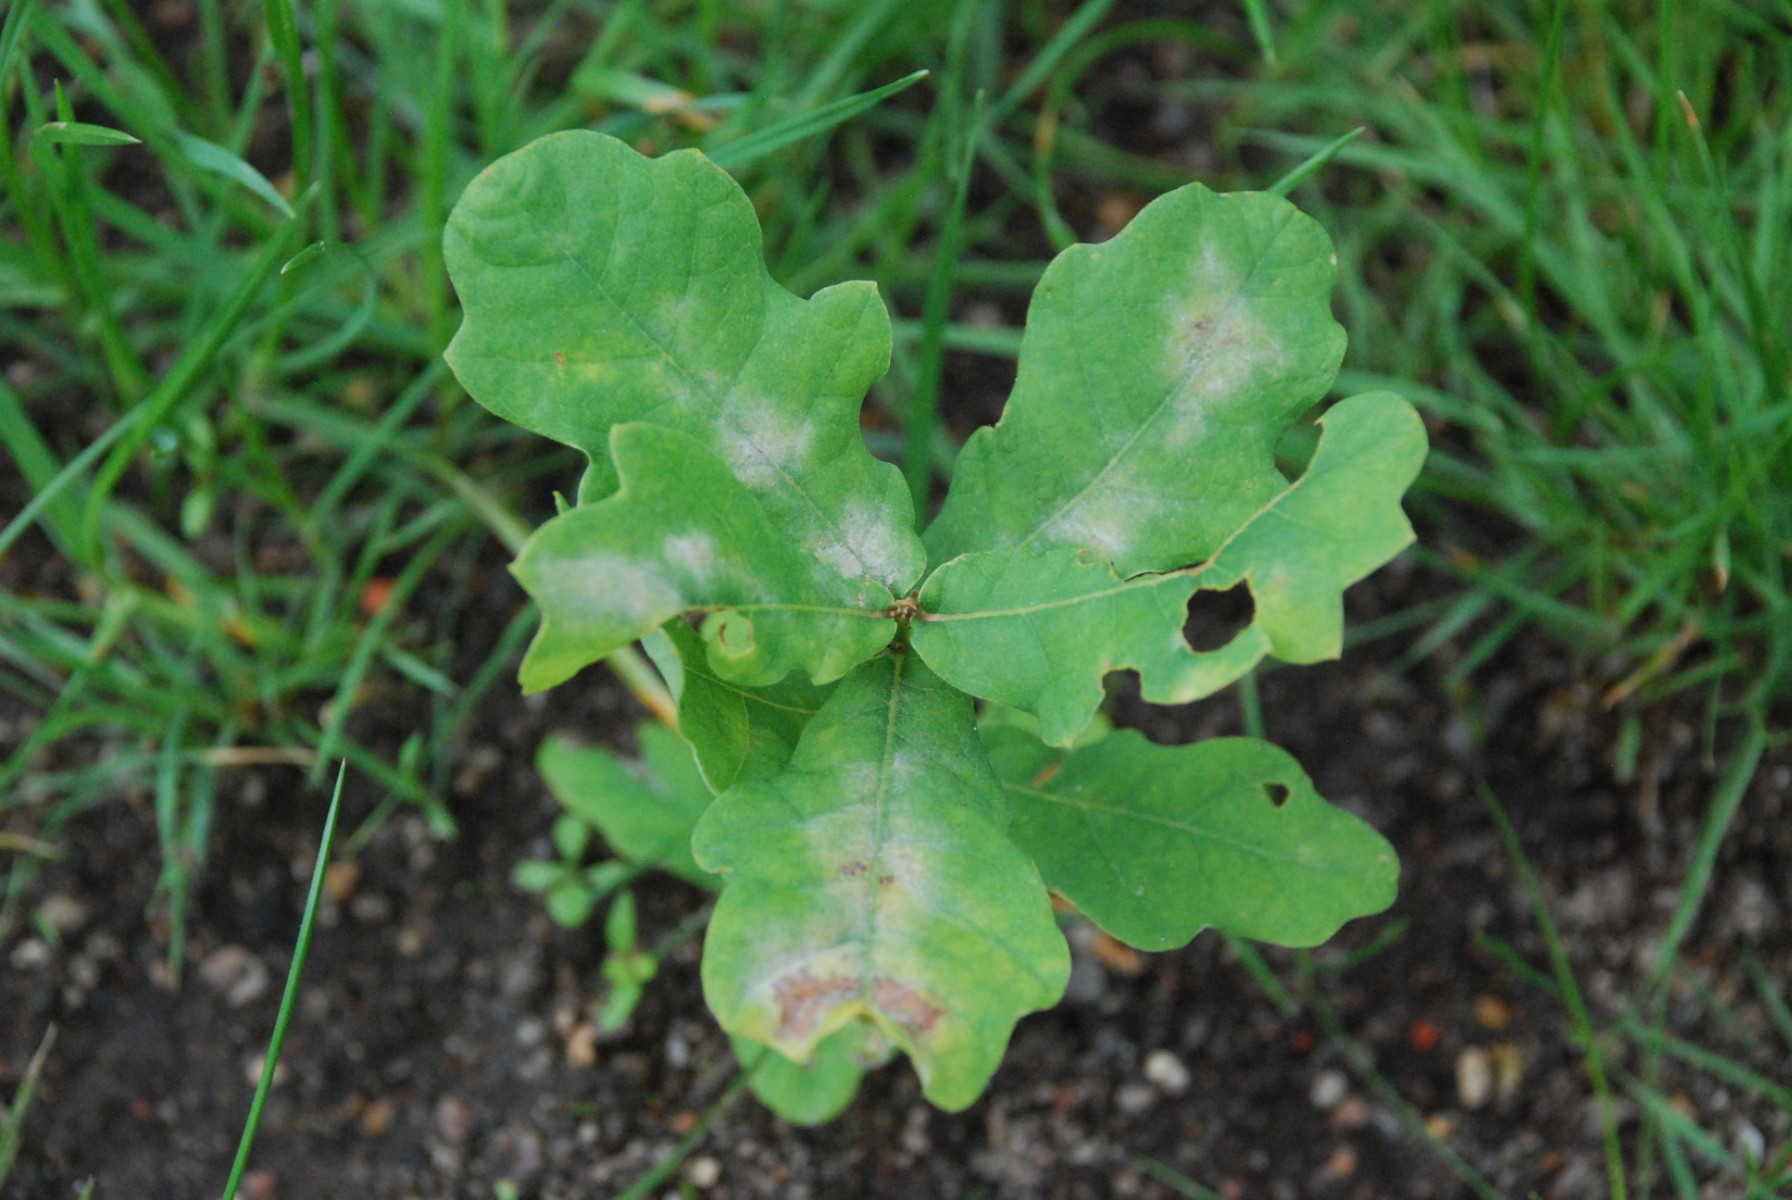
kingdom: Fungi
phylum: Ascomycota
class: Leotiomycetes
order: Helotiales
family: Erysiphaceae
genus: Erysiphe
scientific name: Erysiphe alphitoides
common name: ege-meldug
